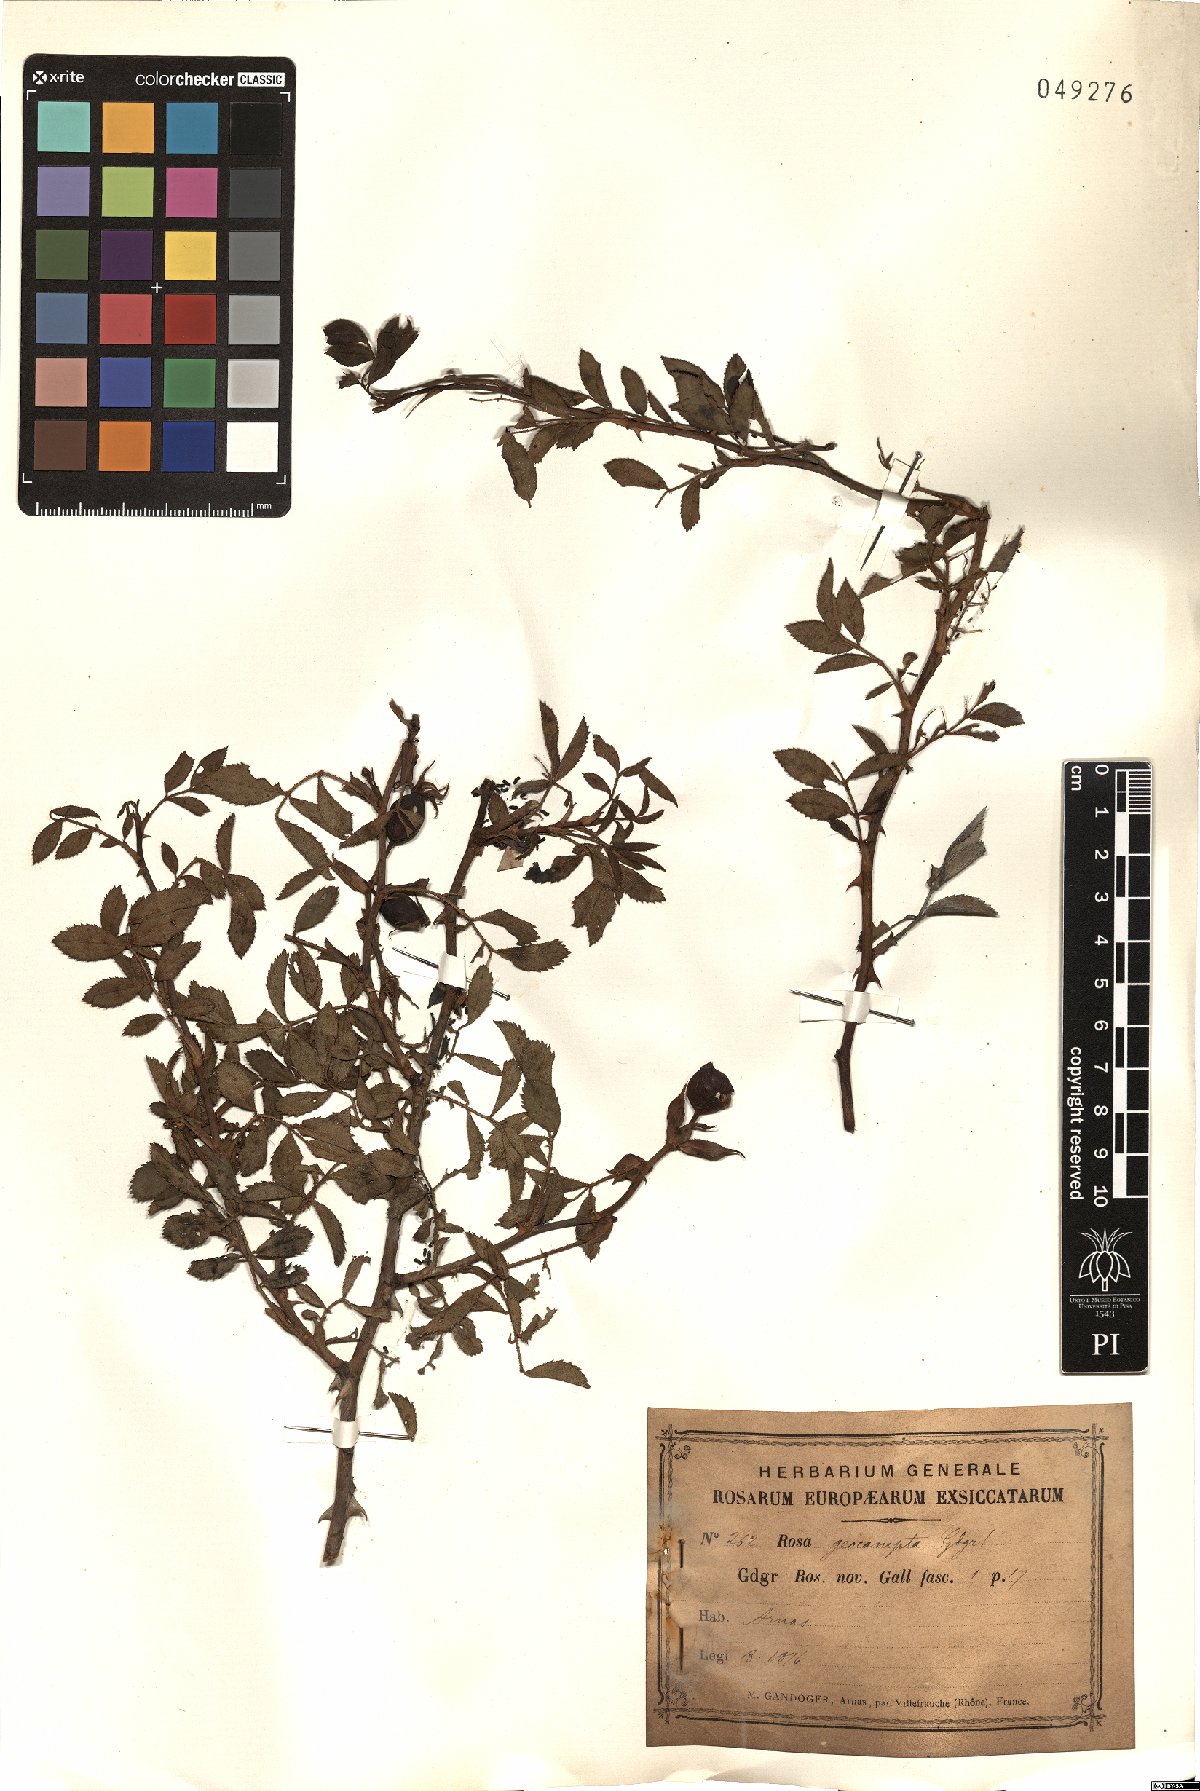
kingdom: Plantae
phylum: Tracheophyta
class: Magnoliopsida
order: Rosales
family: Rosaceae
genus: Rosa
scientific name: Rosa geocampta
